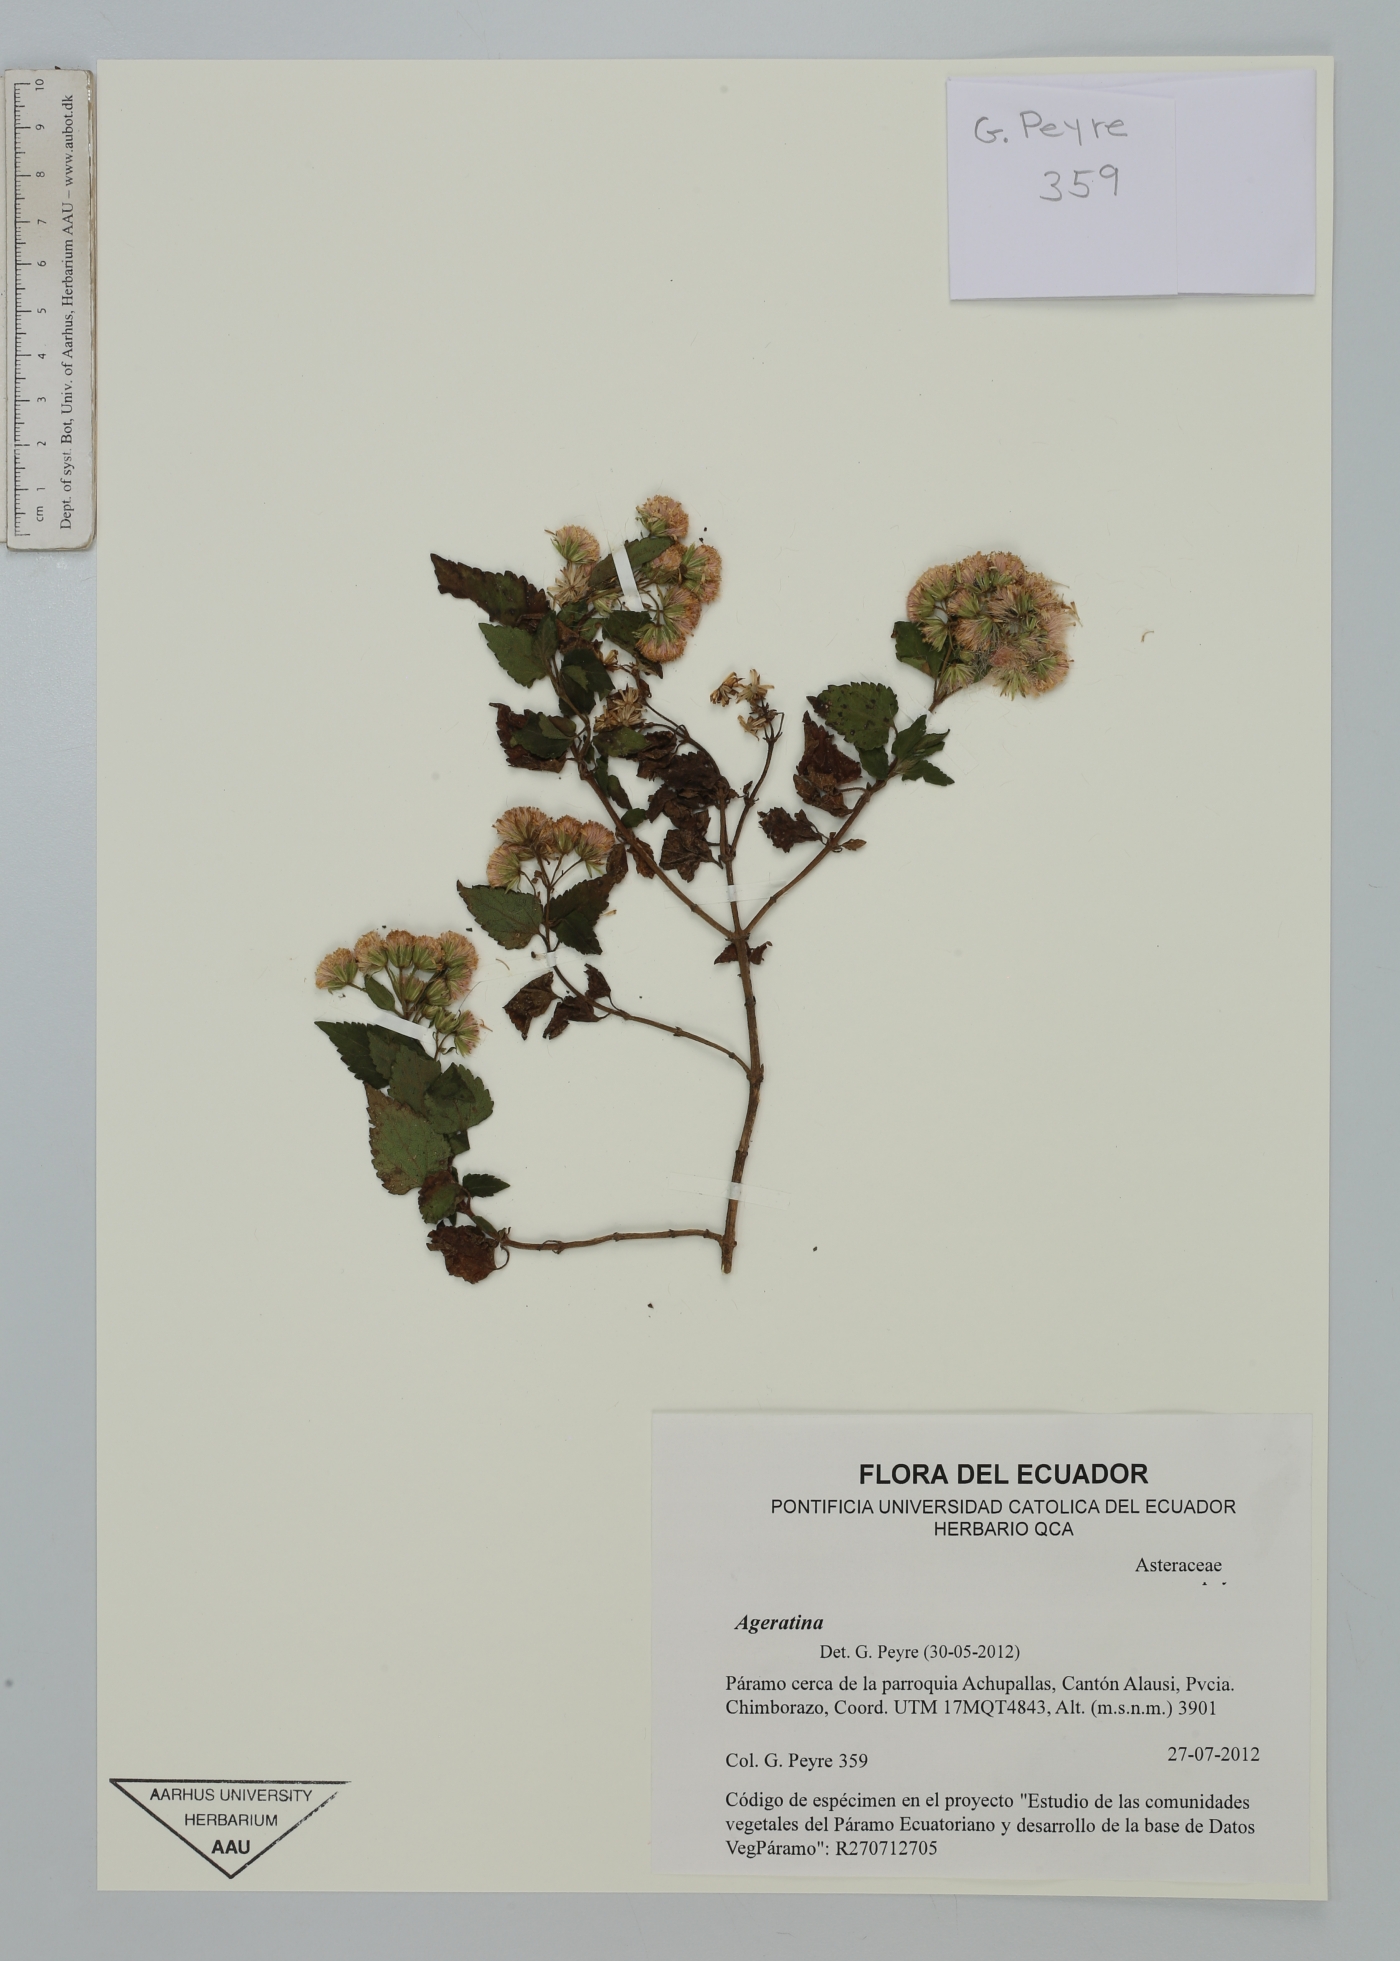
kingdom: Plantae
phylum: Tracheophyta
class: Magnoliopsida
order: Asterales
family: Asteraceae
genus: Ageratina
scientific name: Ageratina
